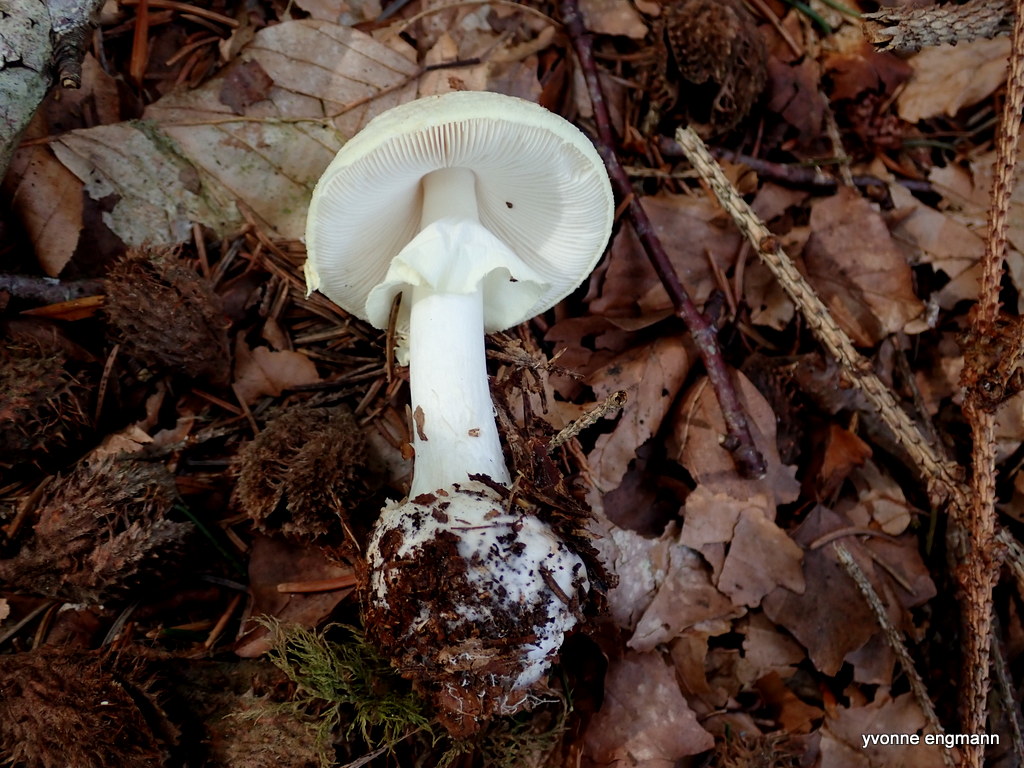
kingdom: Fungi
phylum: Basidiomycota
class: Agaricomycetes
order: Agaricales
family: Amanitaceae
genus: Amanita
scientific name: Amanita citrina
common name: kugleknoldet fluesvamp
